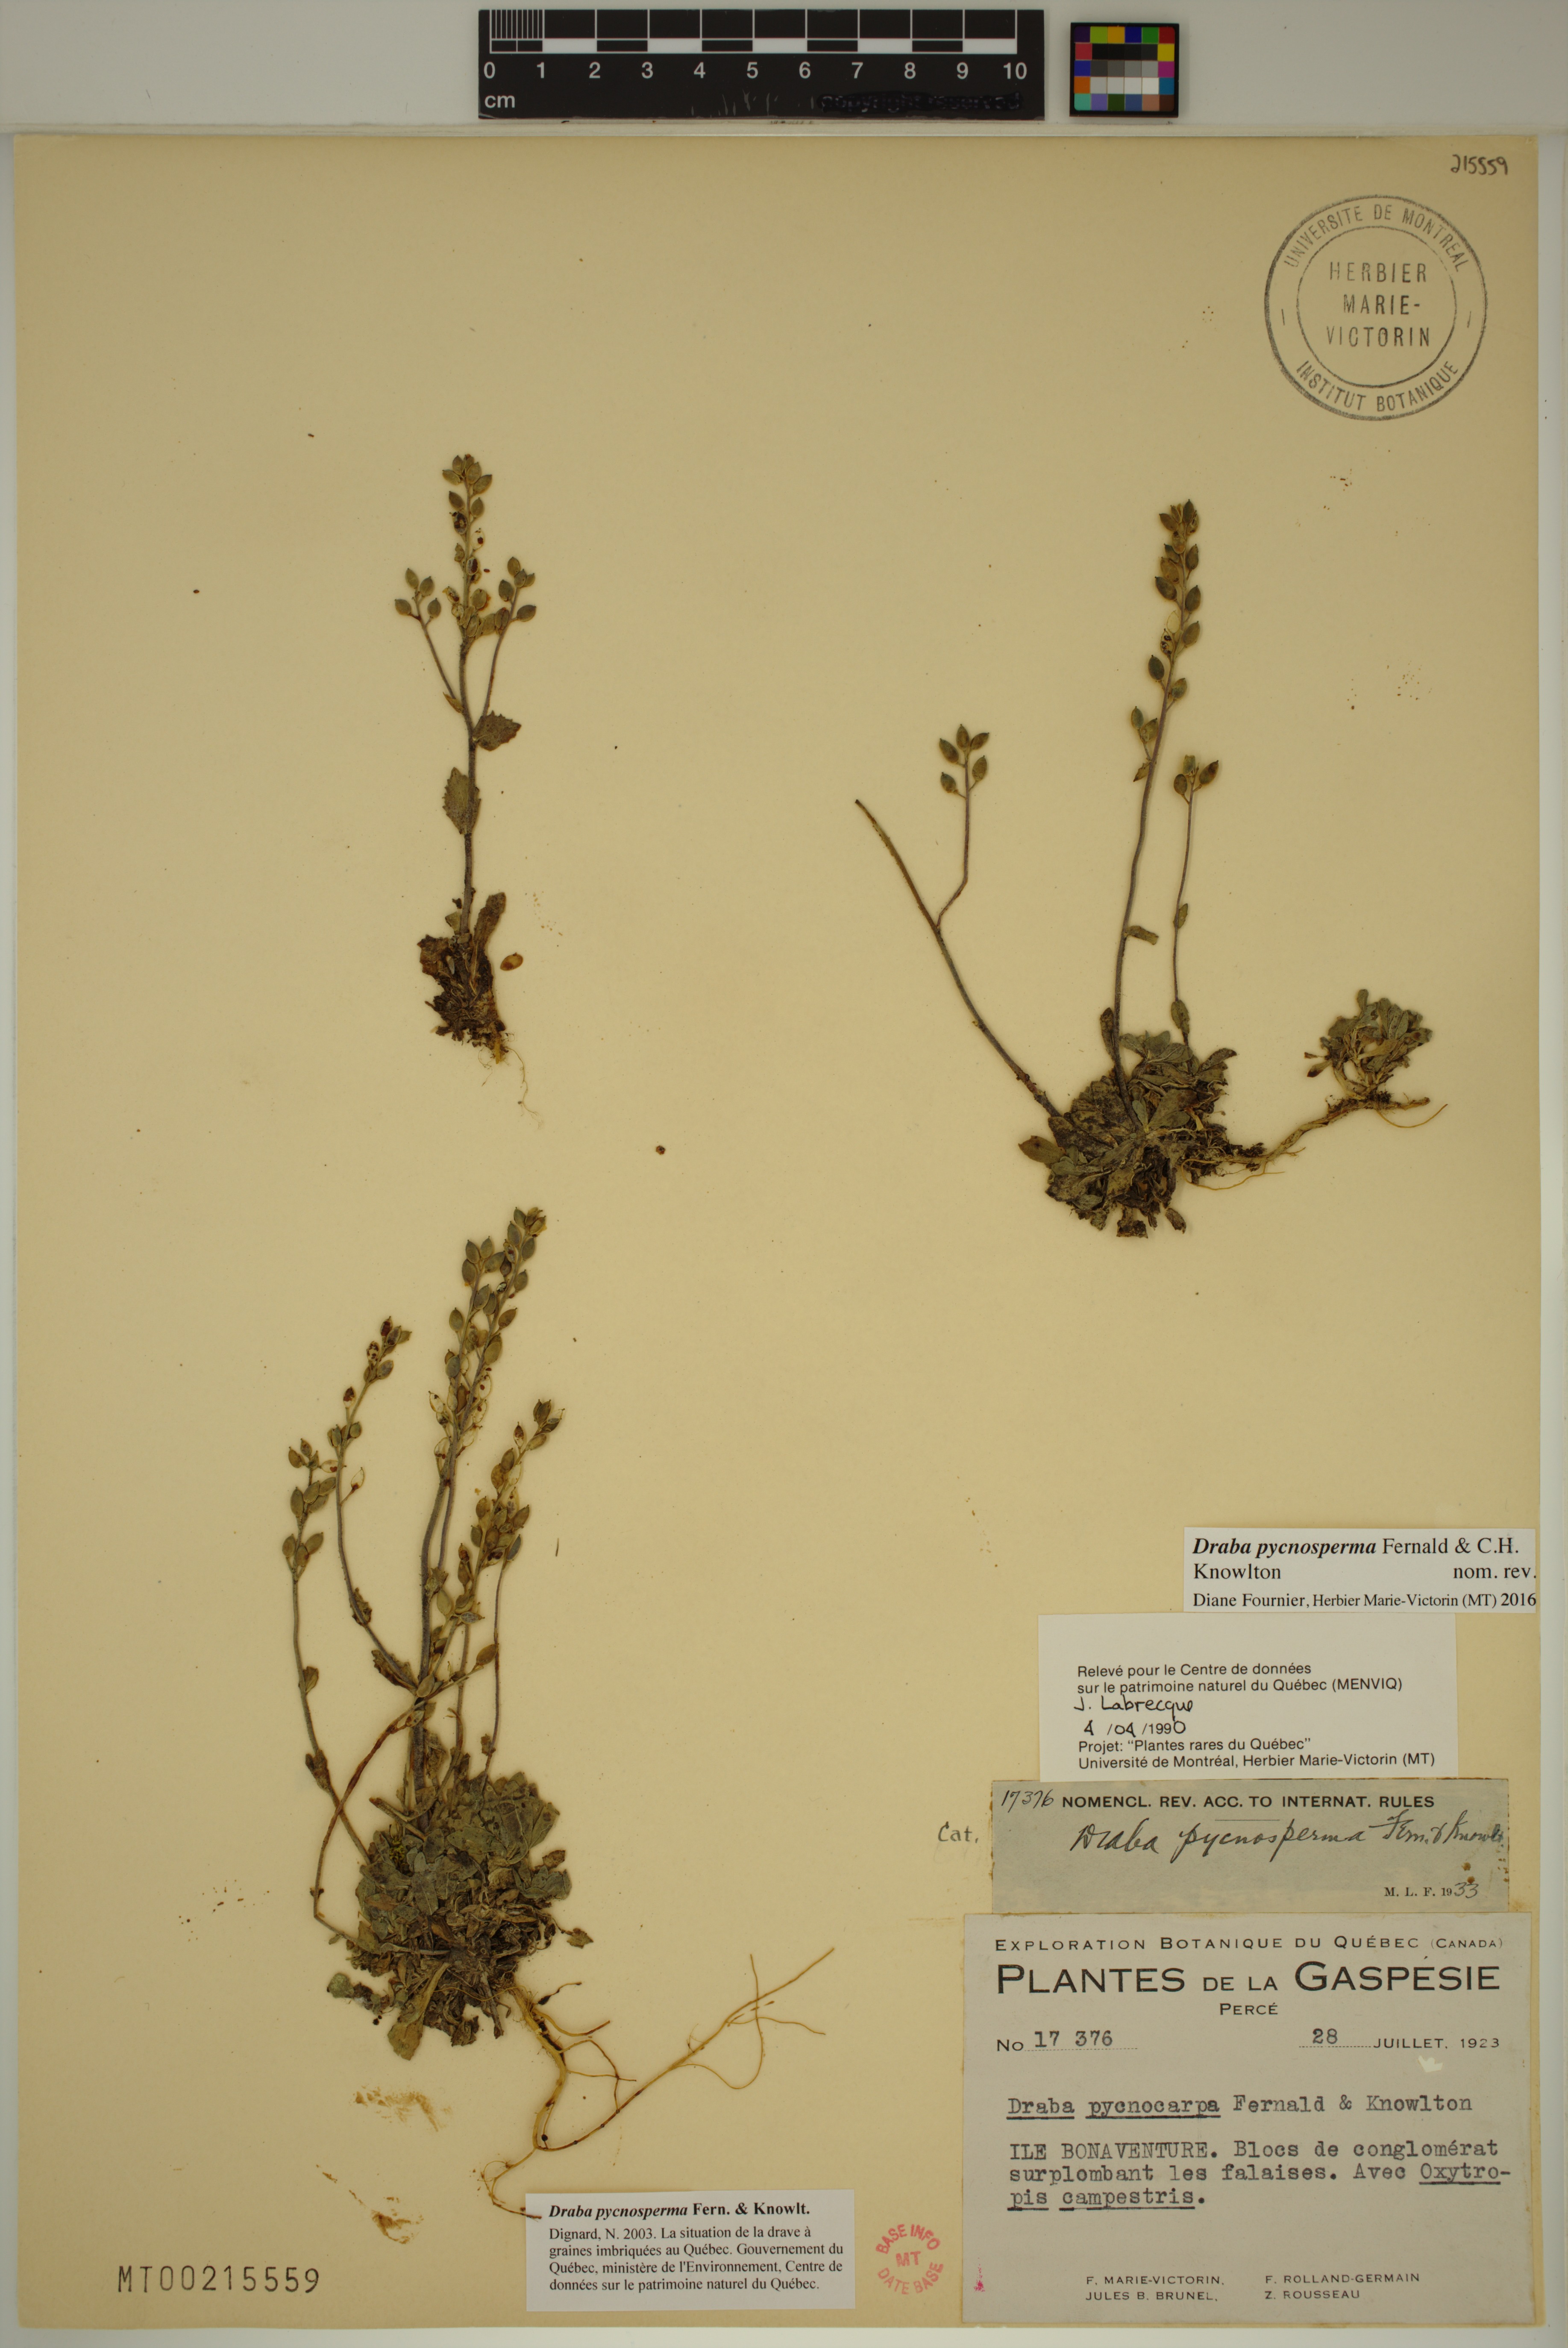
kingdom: Plantae
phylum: Tracheophyta
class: Magnoliopsida
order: Brassicales
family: Brassicaceae
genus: Draba
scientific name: Draba pycnosperma
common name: Dense draba
